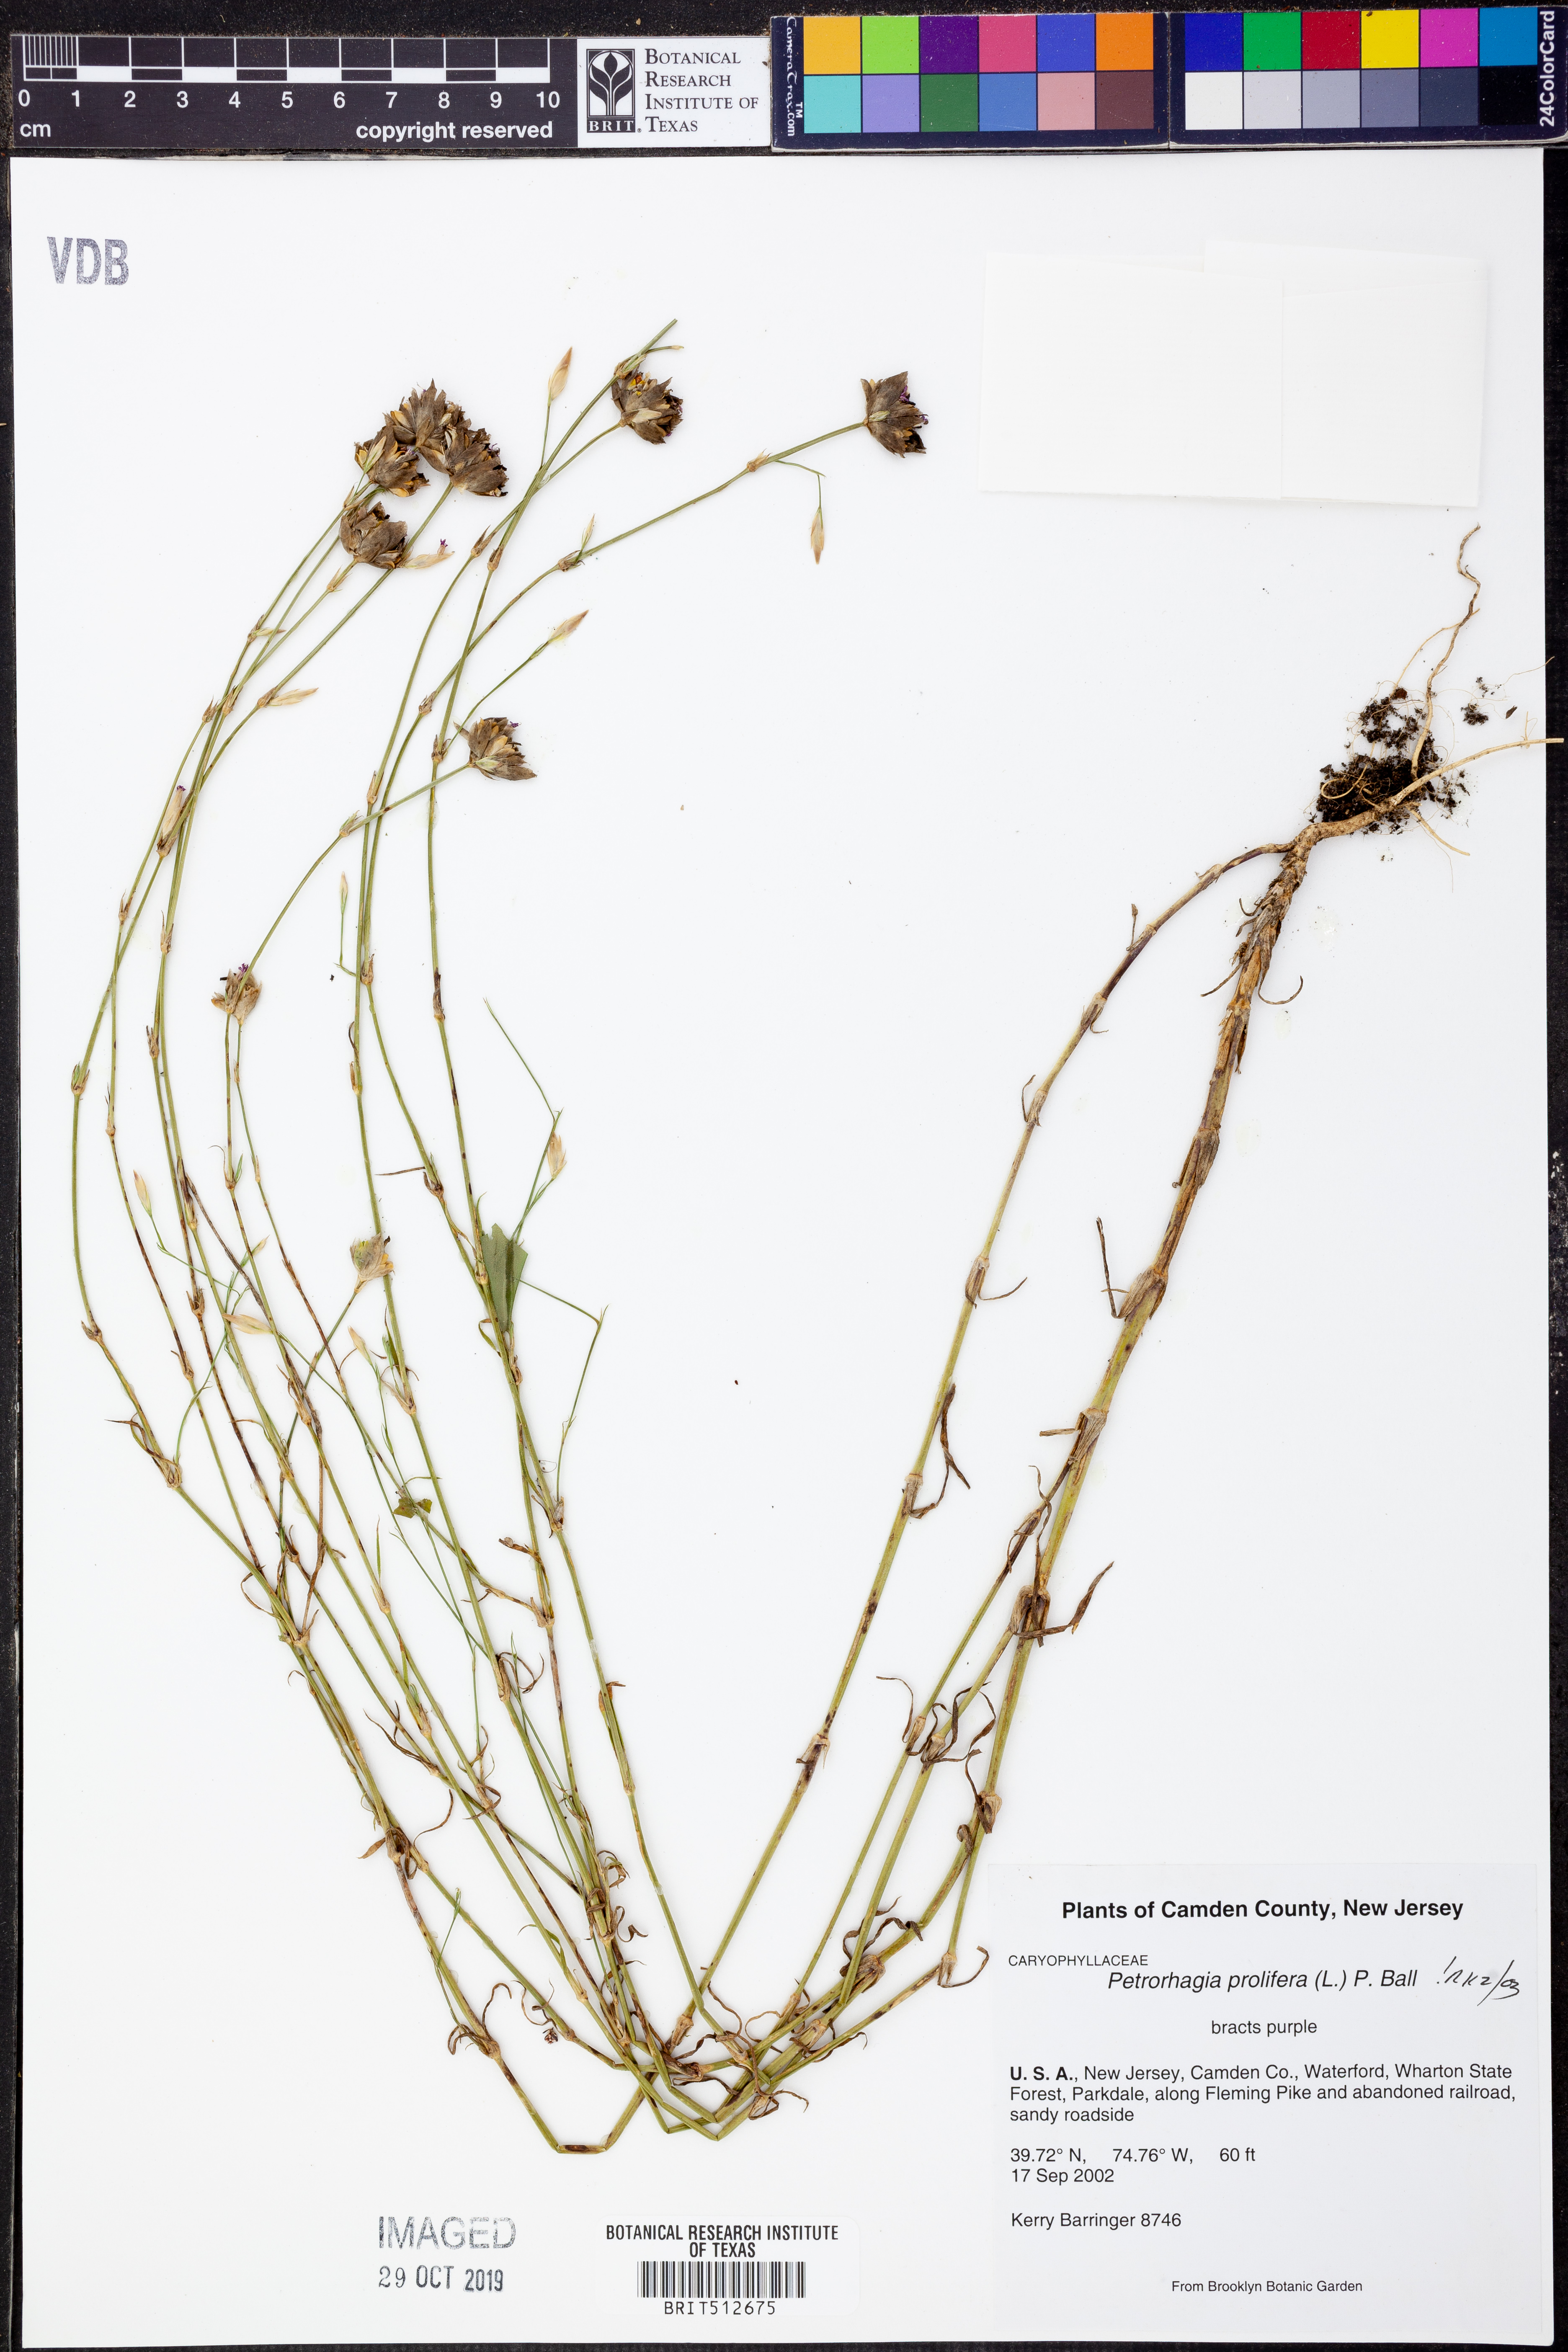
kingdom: Plantae
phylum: Tracheophyta
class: Magnoliopsida
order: Caryophyllales
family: Caryophyllaceae
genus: Petrorhagia
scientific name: Petrorhagia prolifera
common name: Proliferous pink
